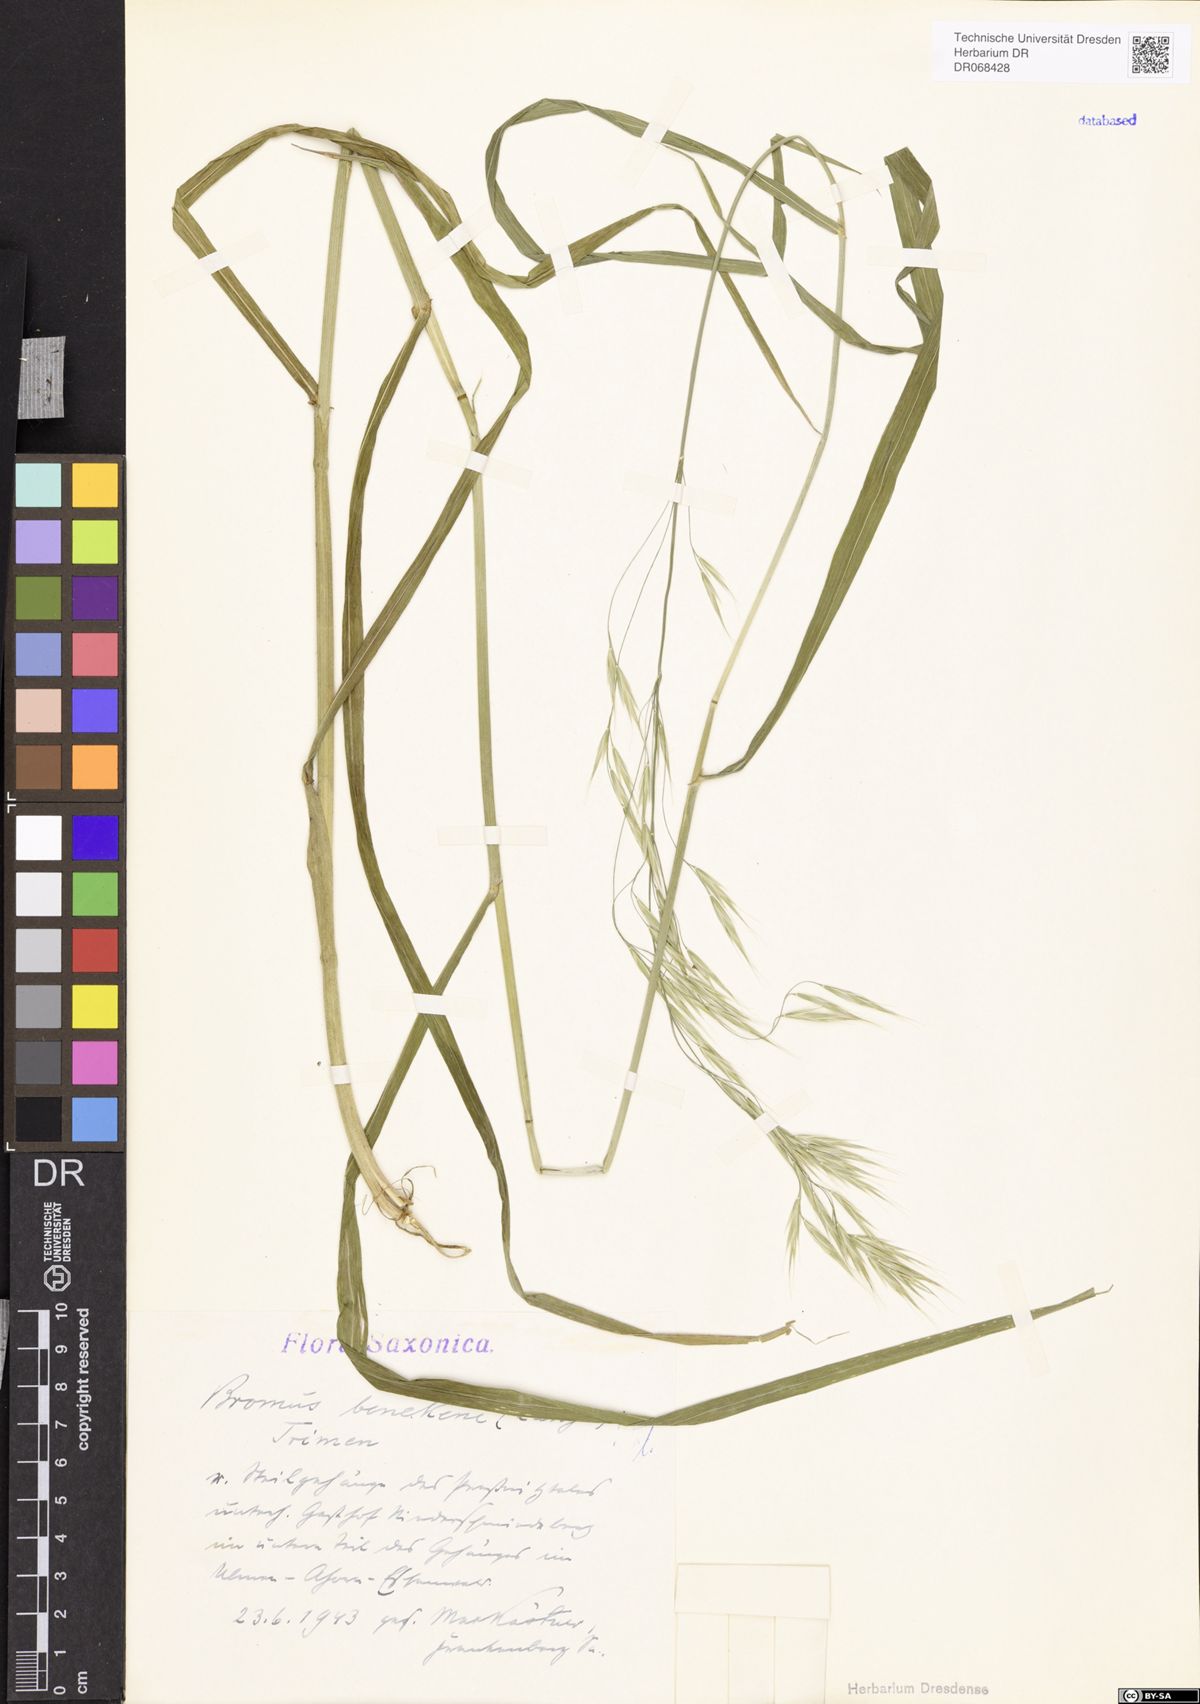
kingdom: Plantae
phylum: Tracheophyta
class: Liliopsida
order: Poales
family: Poaceae
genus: Bromus
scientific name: Bromus benekenii
